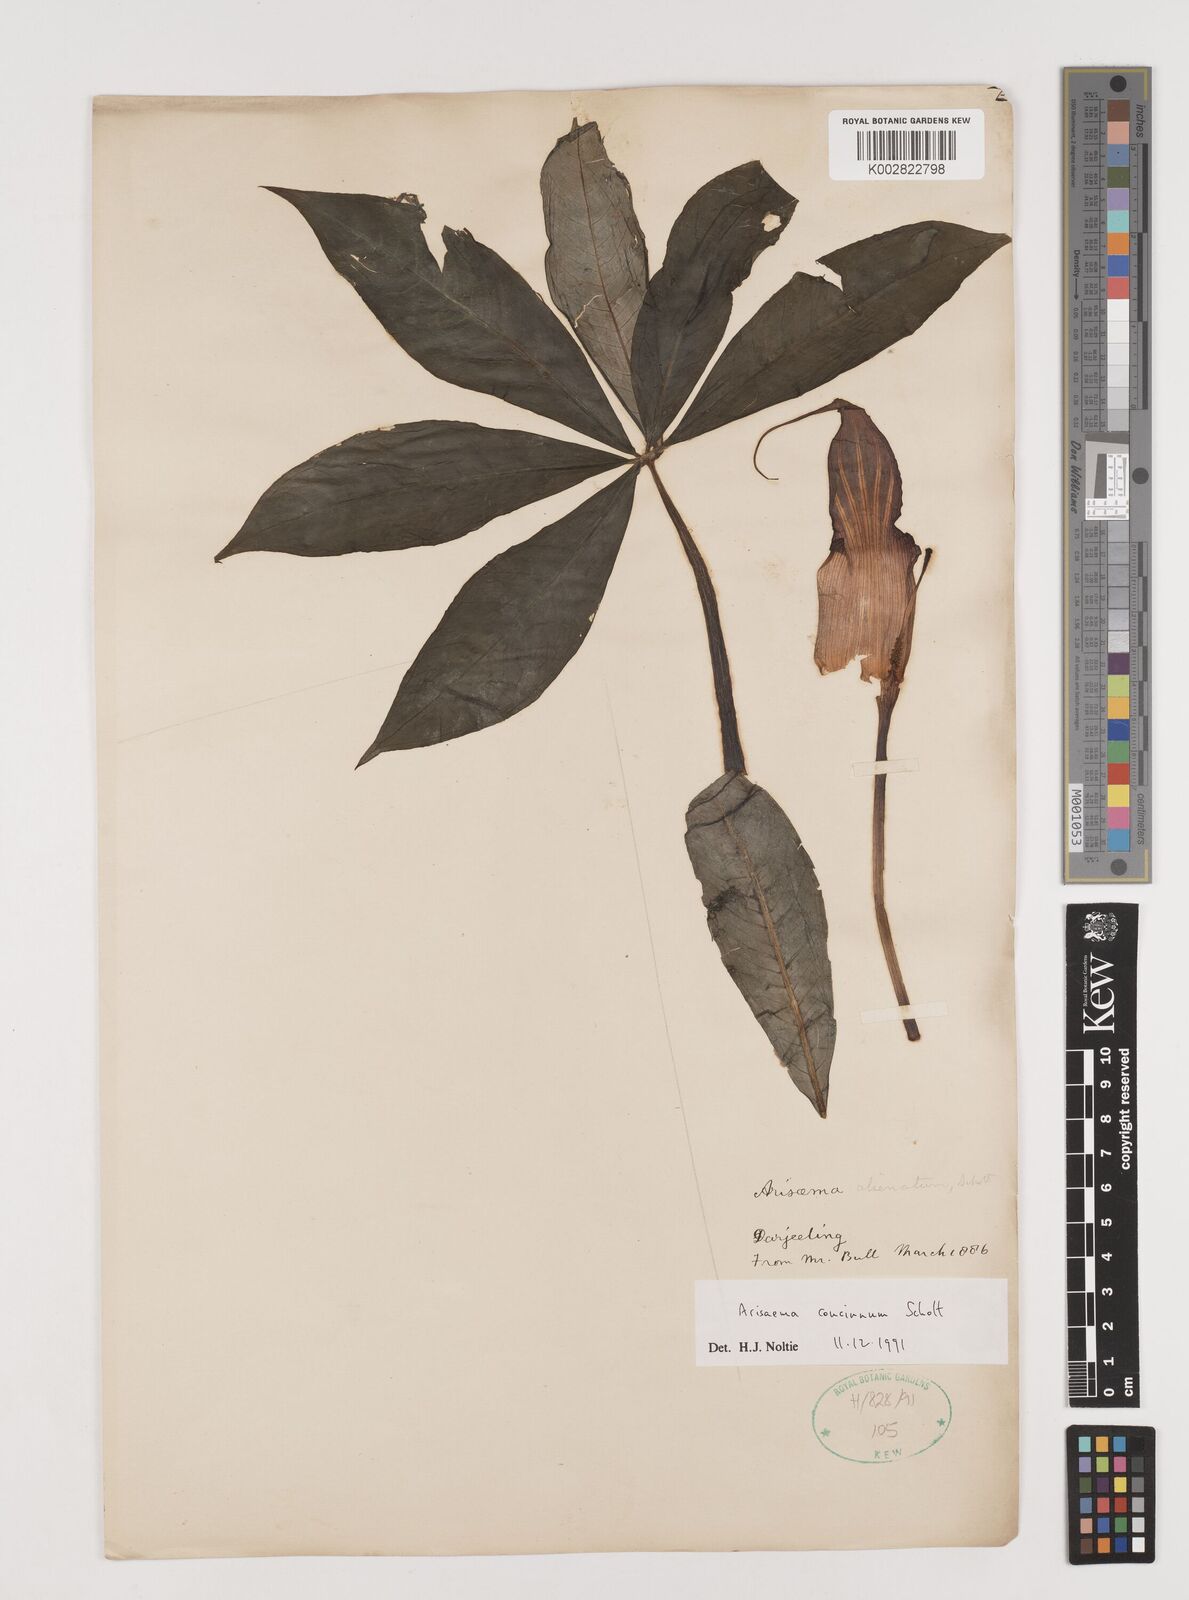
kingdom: Plantae
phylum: Tracheophyta
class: Liliopsida
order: Alismatales
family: Araceae
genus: Arisaema
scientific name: Arisaema concinnum
